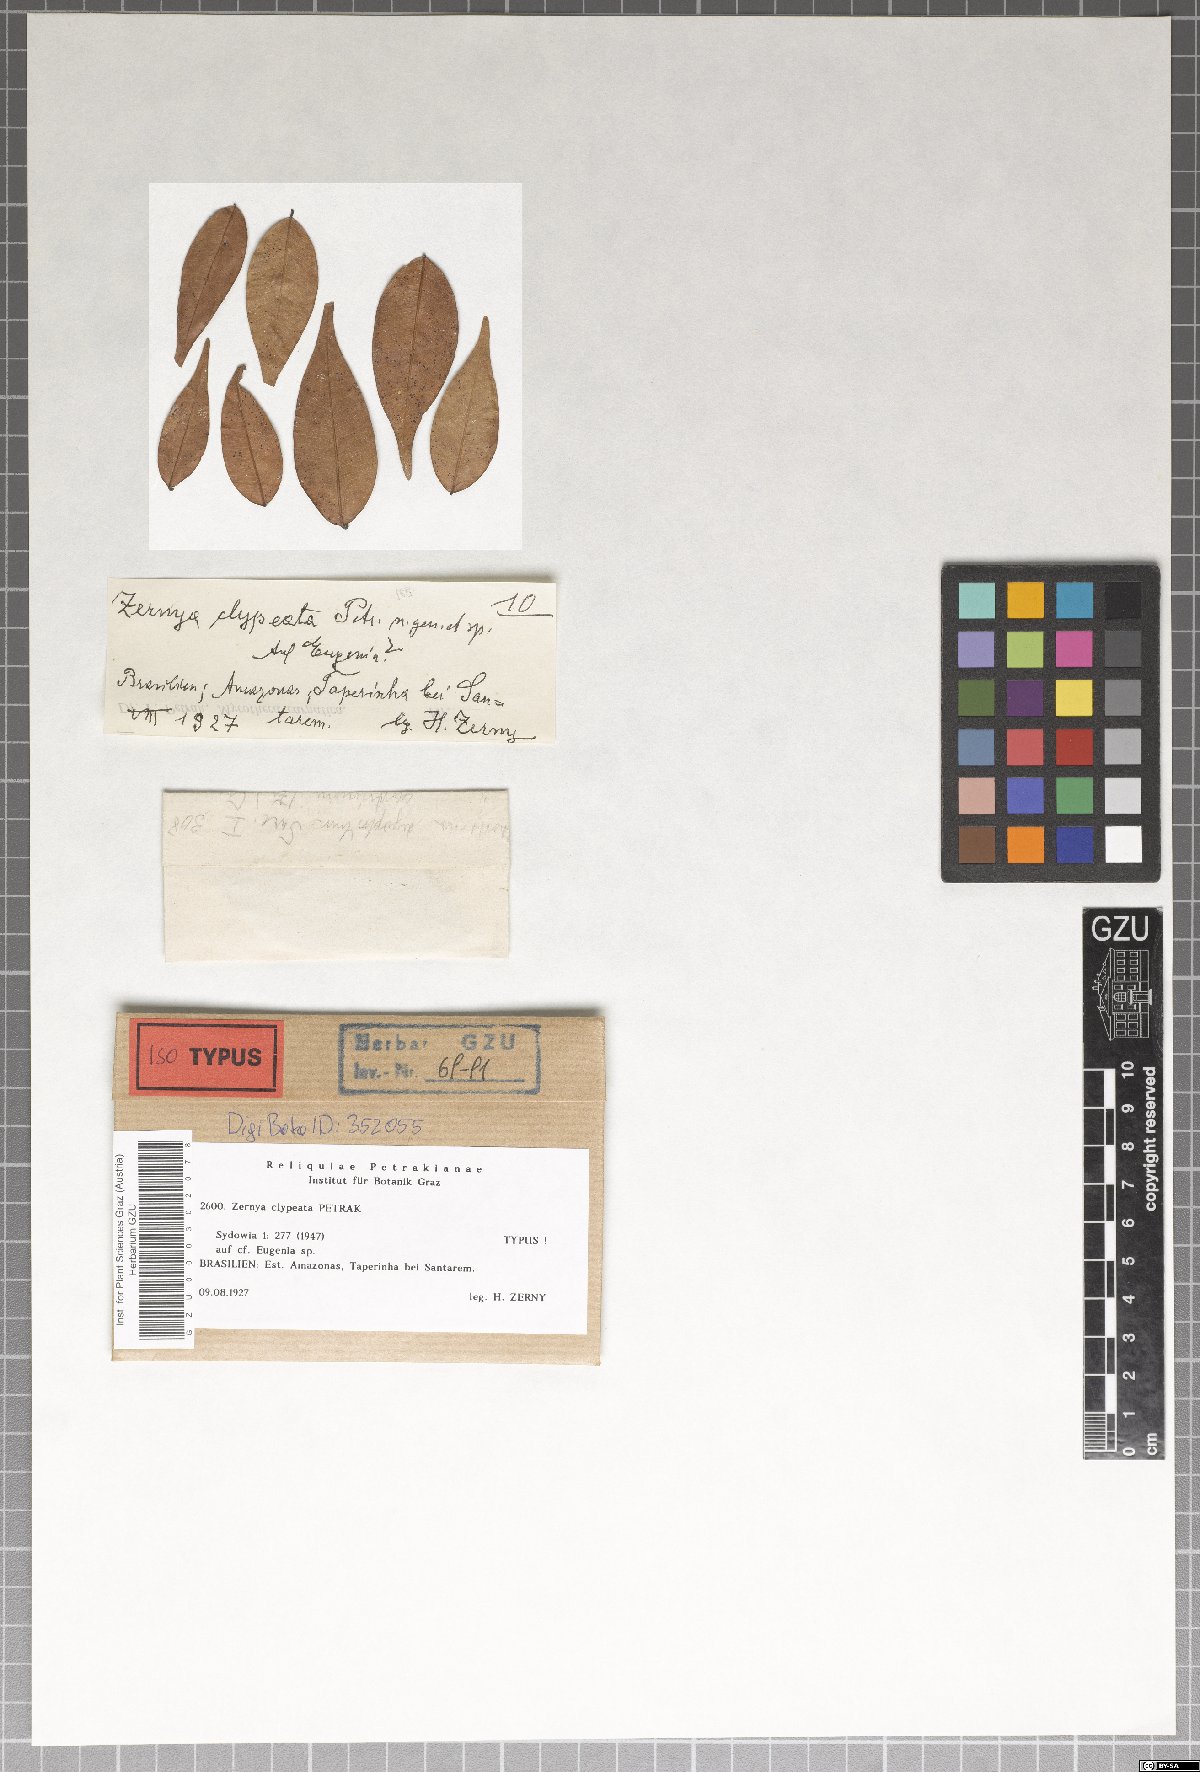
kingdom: Fungi
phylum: Ascomycota
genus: Zernya
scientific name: Zernya clypeata
